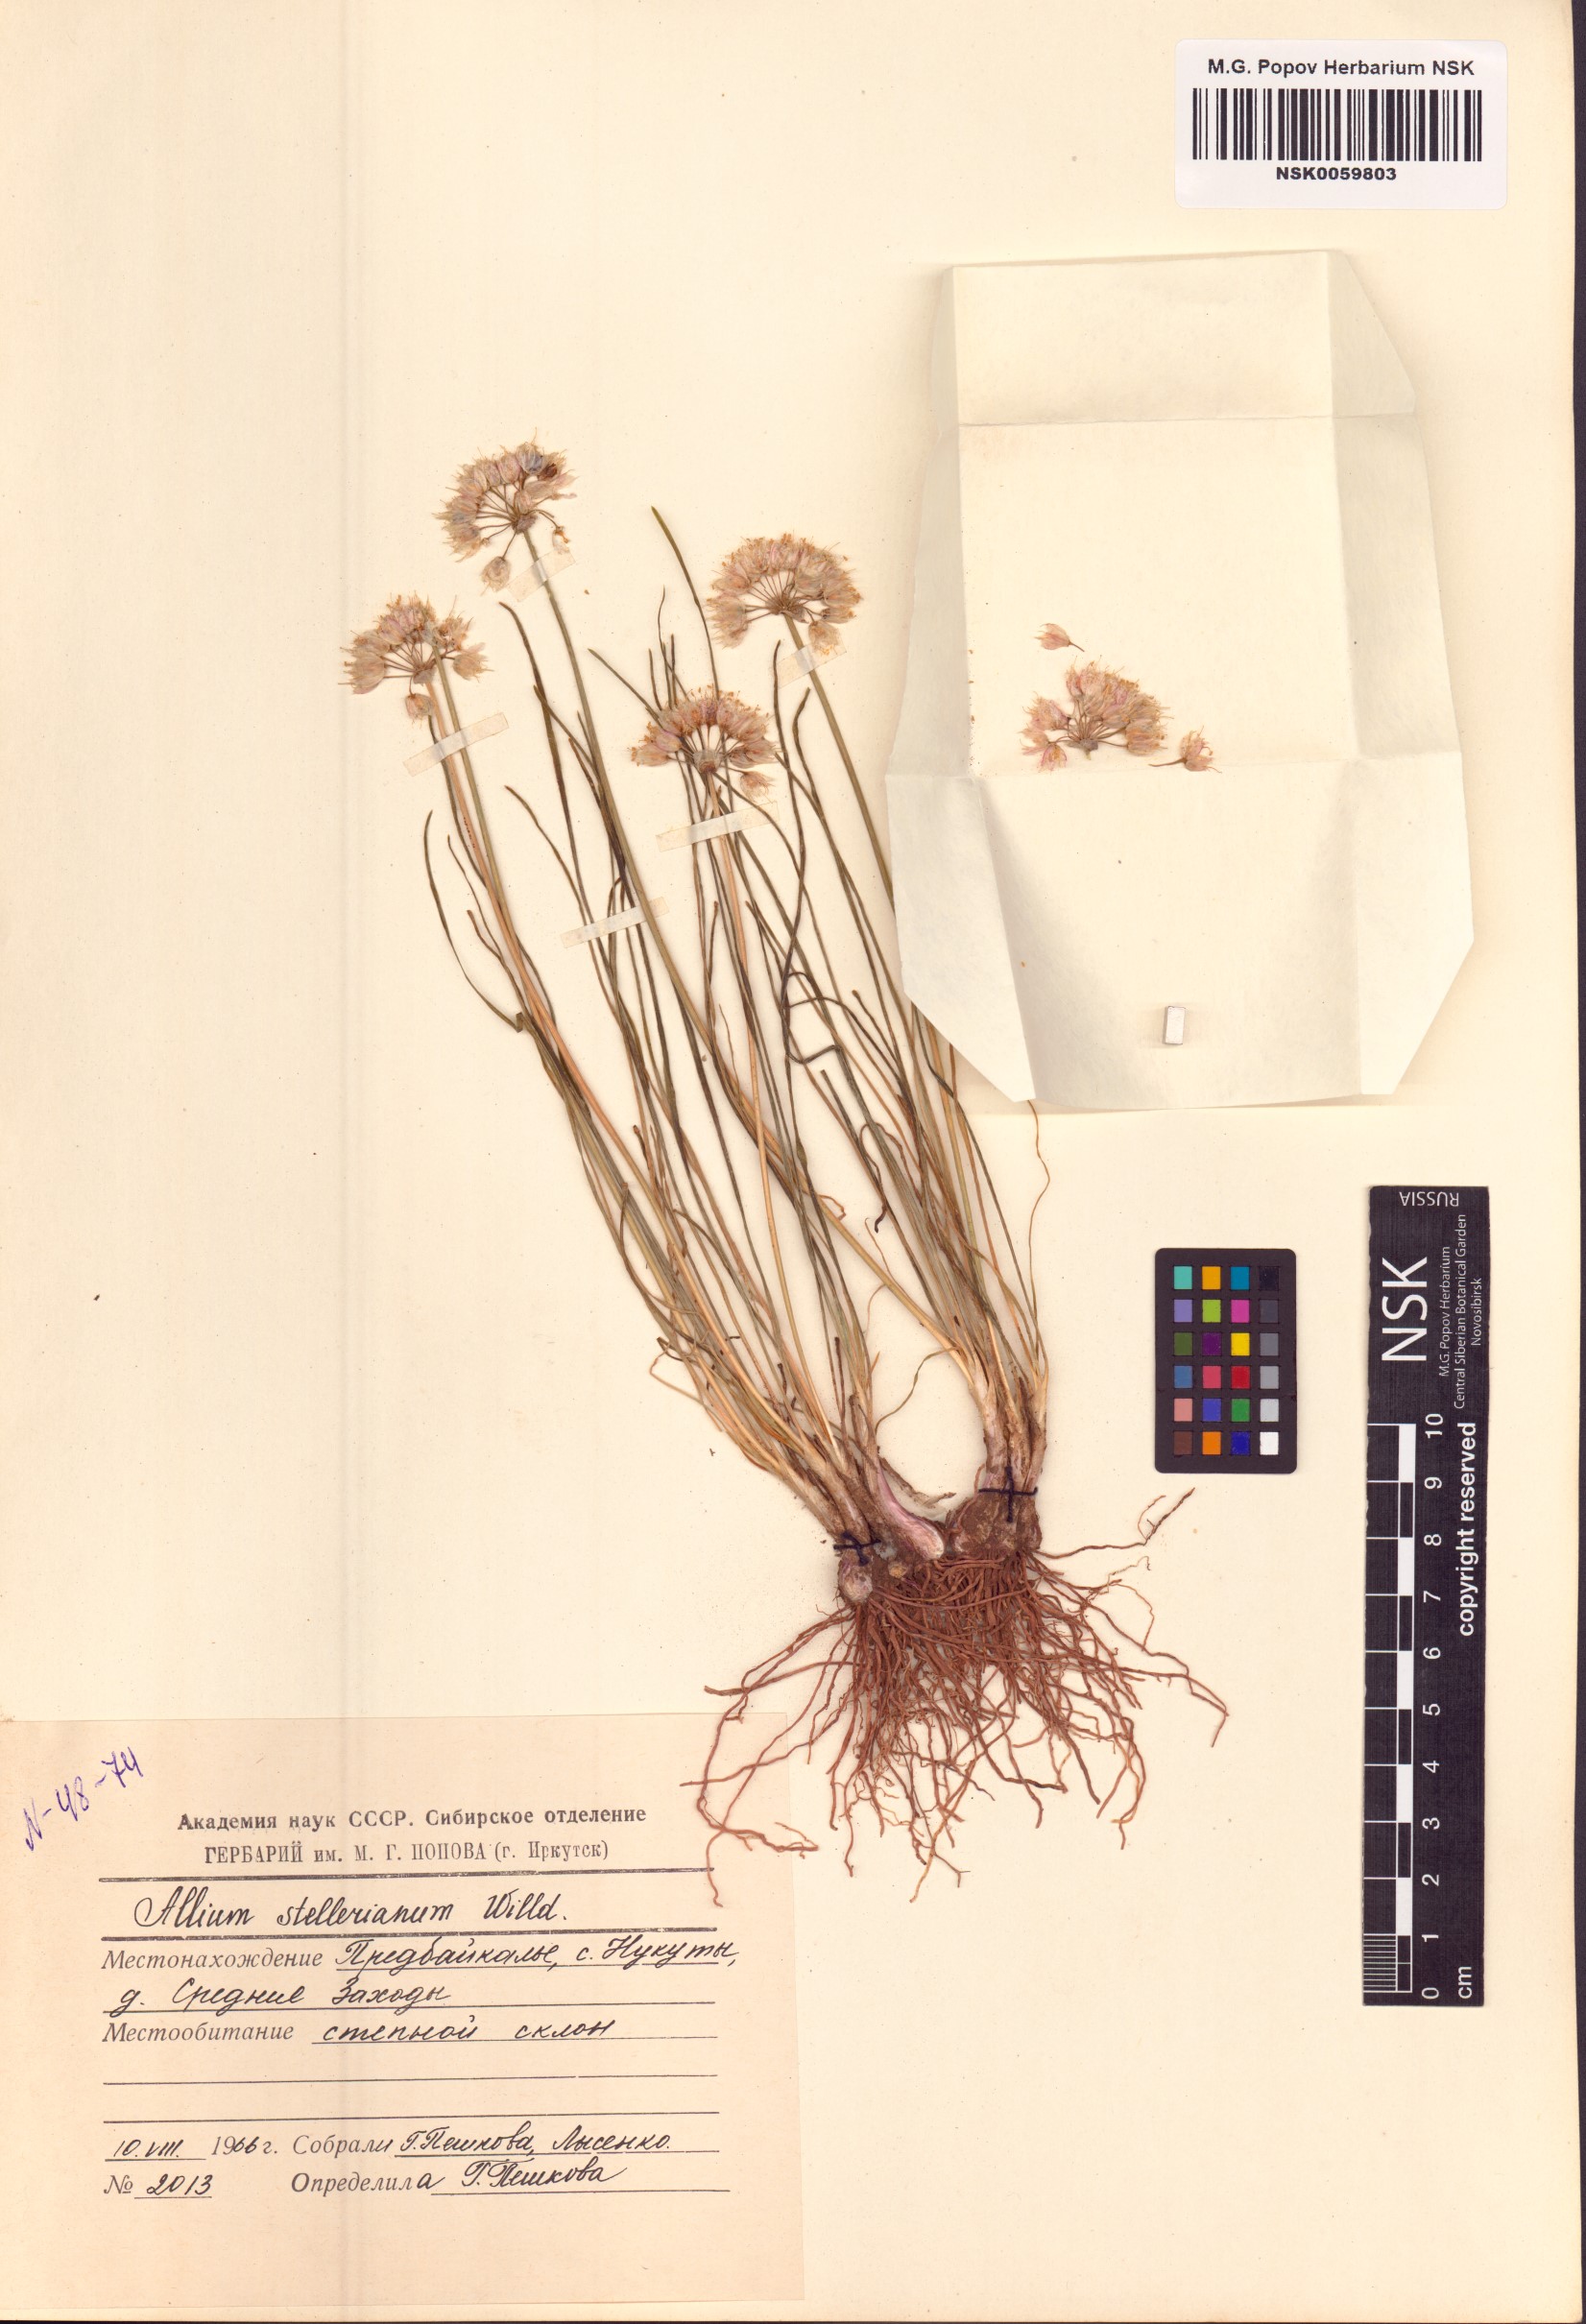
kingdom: Plantae
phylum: Tracheophyta
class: Liliopsida
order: Asparagales
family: Amaryllidaceae
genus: Allium
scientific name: Allium stellerianum
